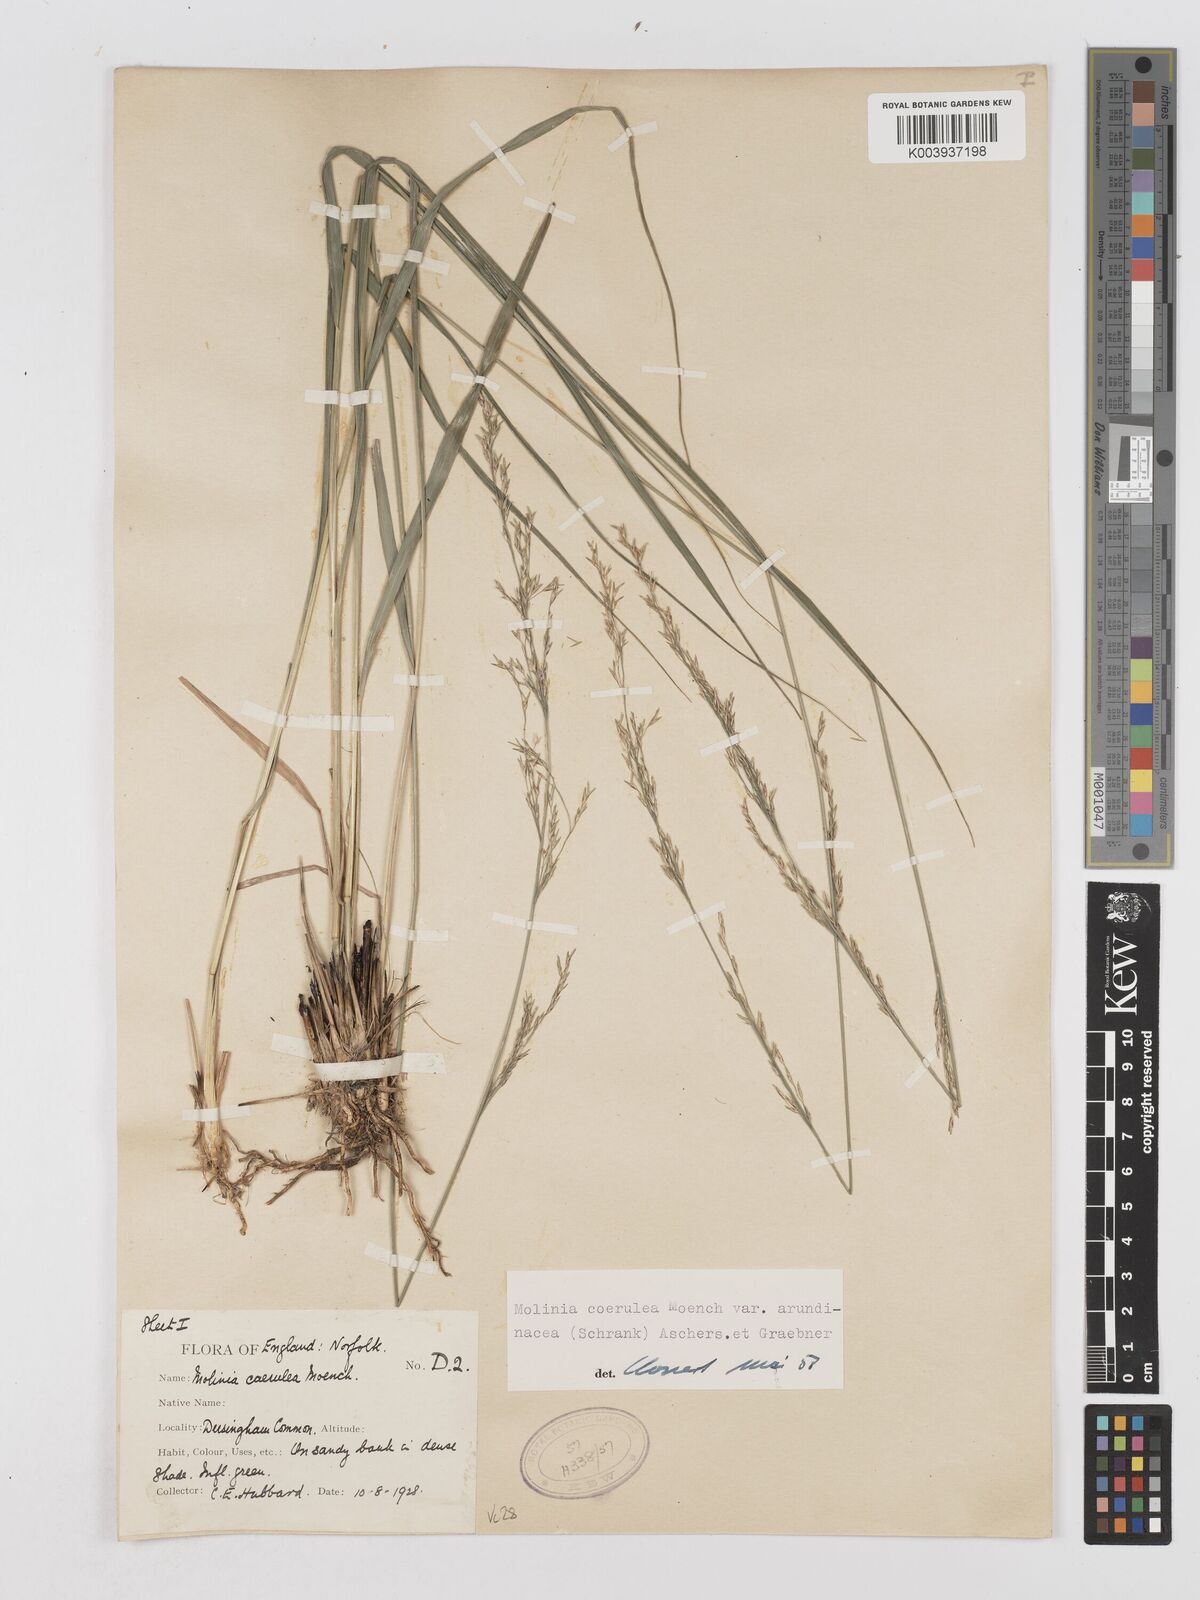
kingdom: Plantae
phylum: Tracheophyta
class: Liliopsida
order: Poales
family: Poaceae
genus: Molinia
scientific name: Molinia caerulea
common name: Purple moor-grass
